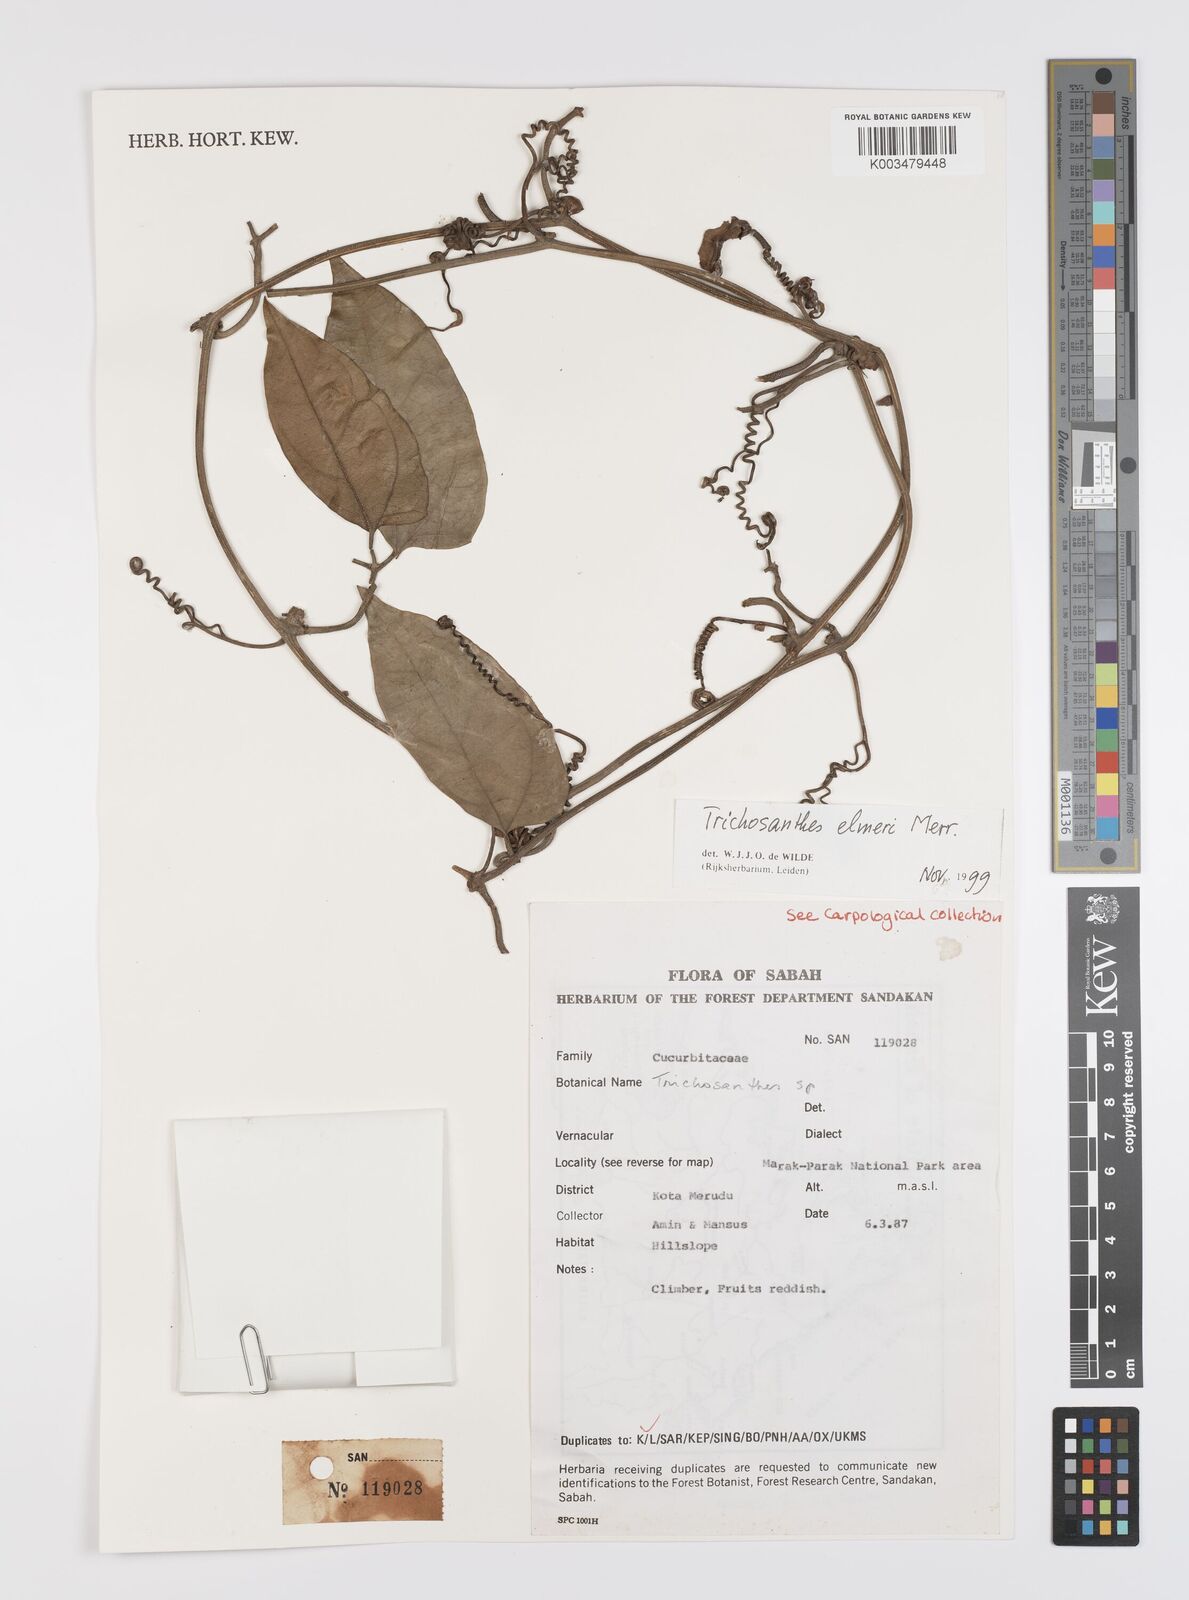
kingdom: Plantae
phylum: Tracheophyta
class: Magnoliopsida
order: Cucurbitales
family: Cucurbitaceae
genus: Trichosanthes
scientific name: Trichosanthes elmeri
